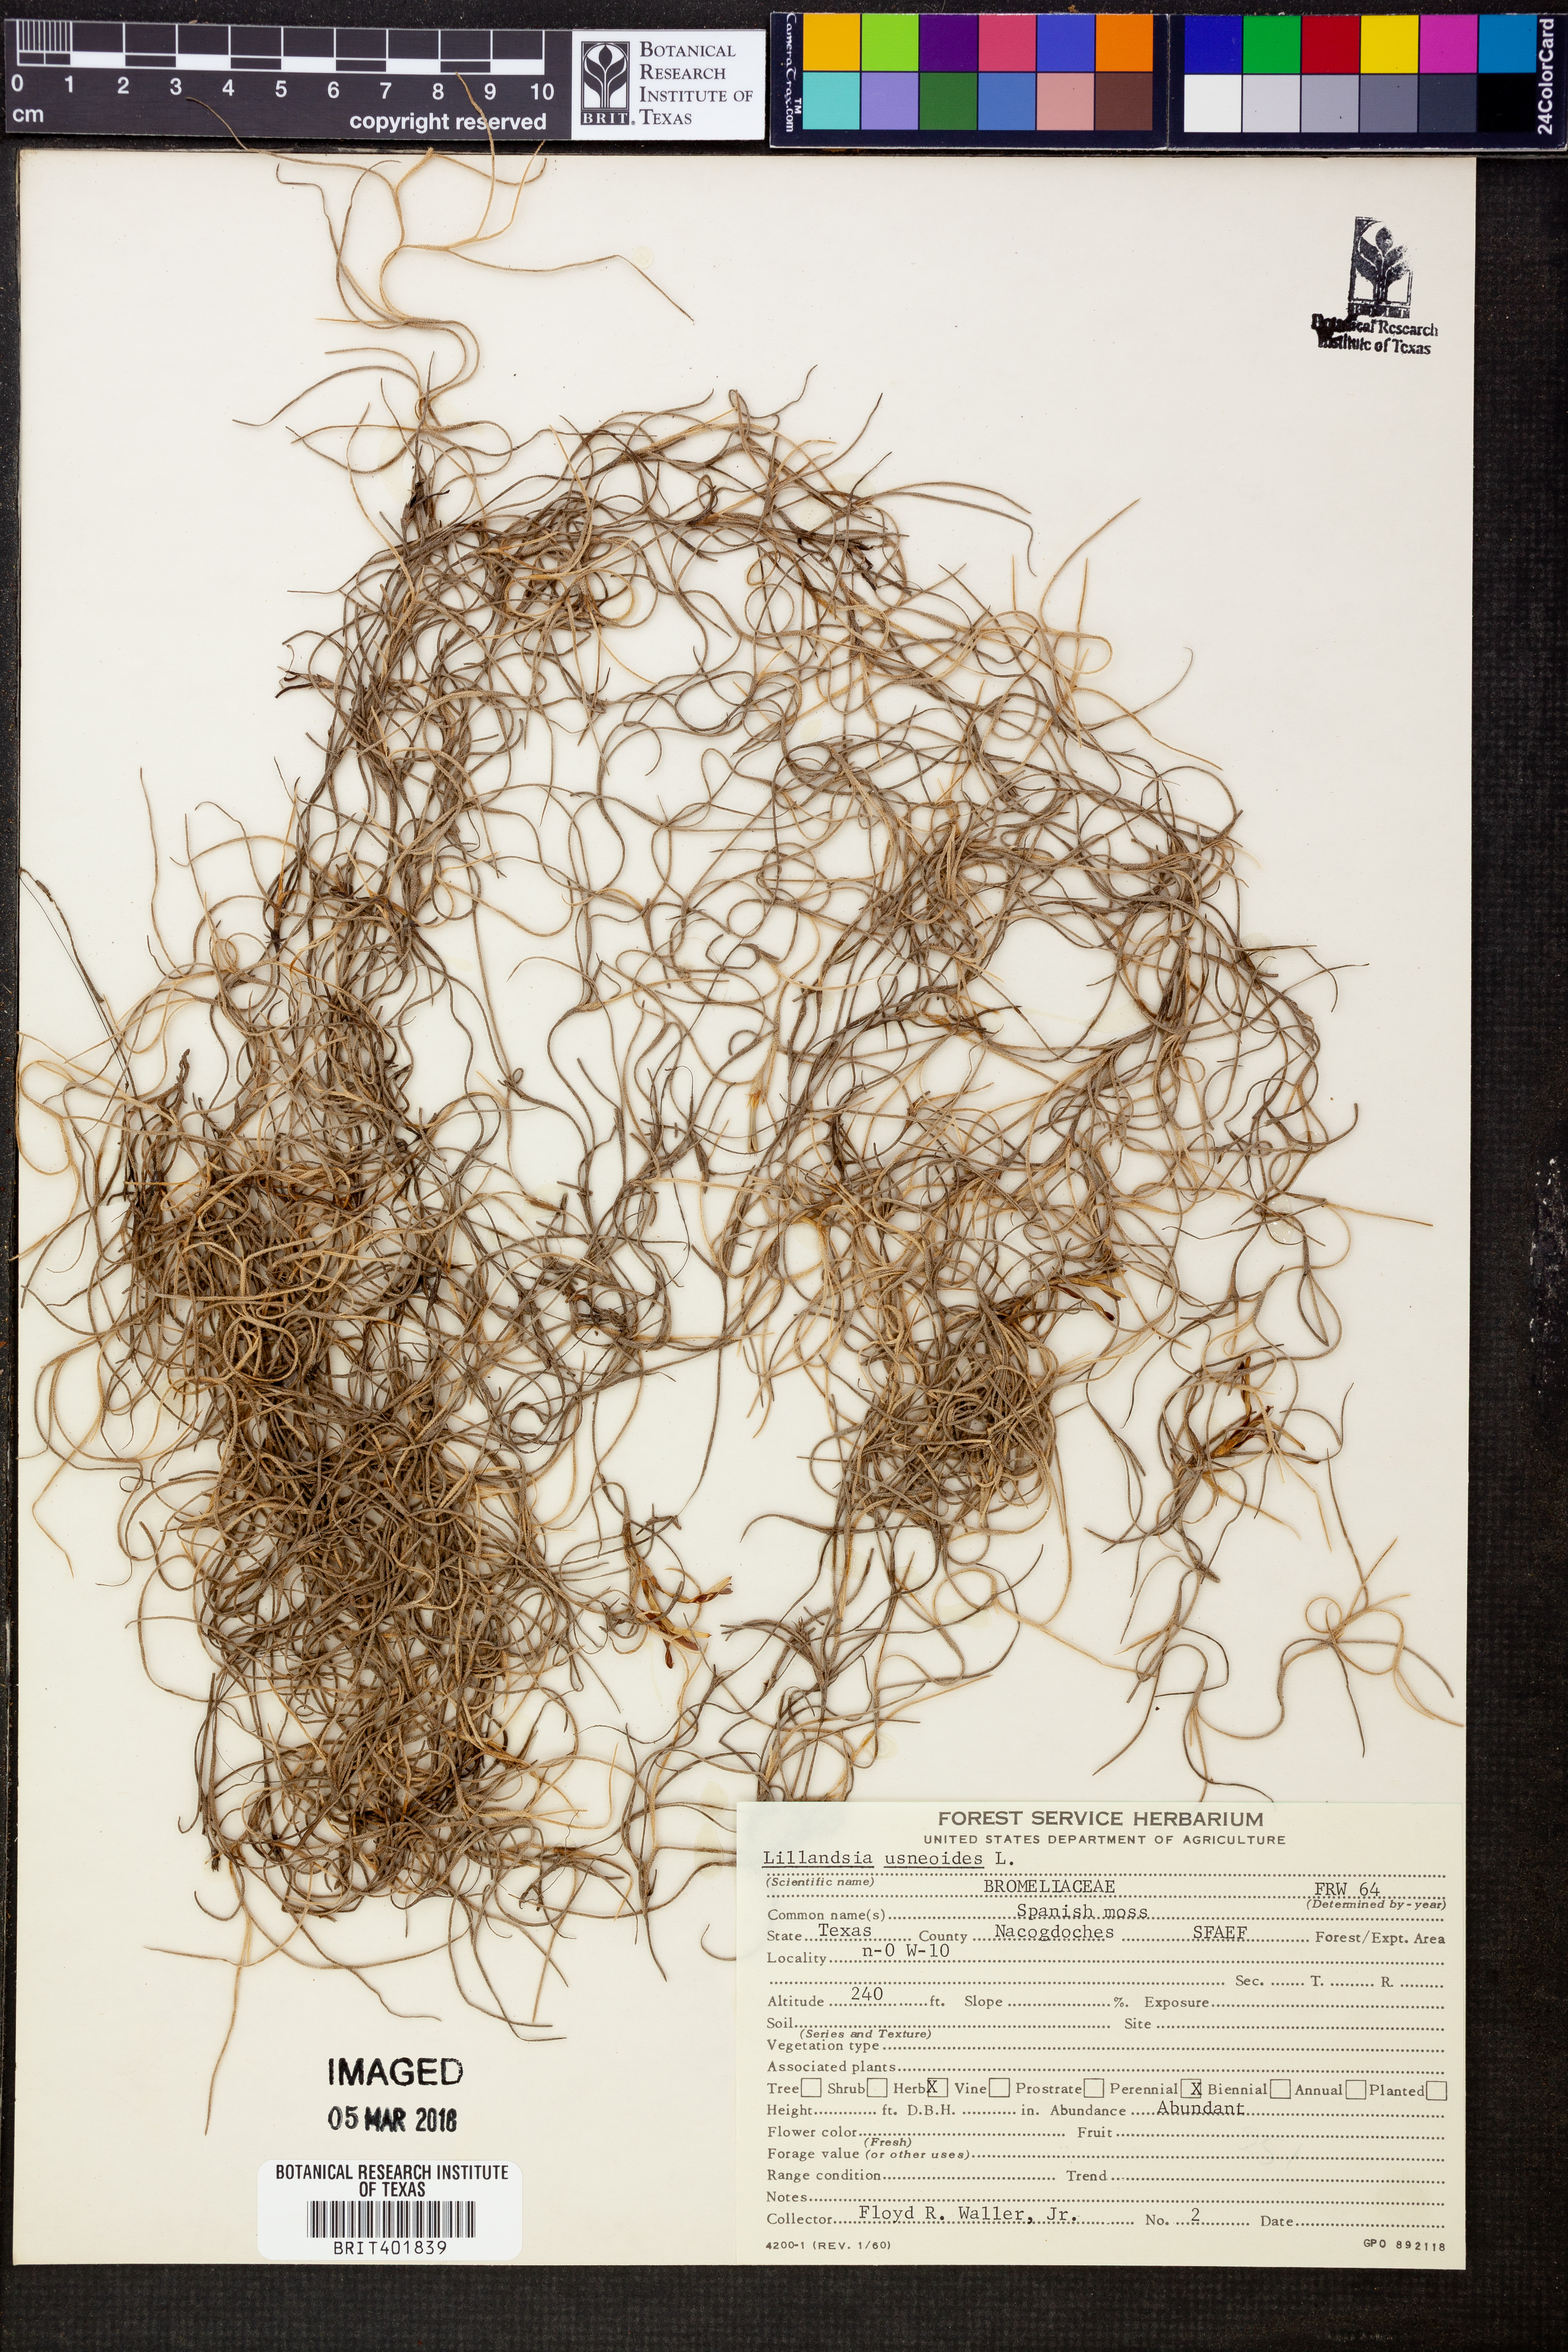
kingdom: Plantae
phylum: Tracheophyta
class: Liliopsida
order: Poales
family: Bromeliaceae
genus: Tillandsia
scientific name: Tillandsia usneoides
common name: Spanish moss
